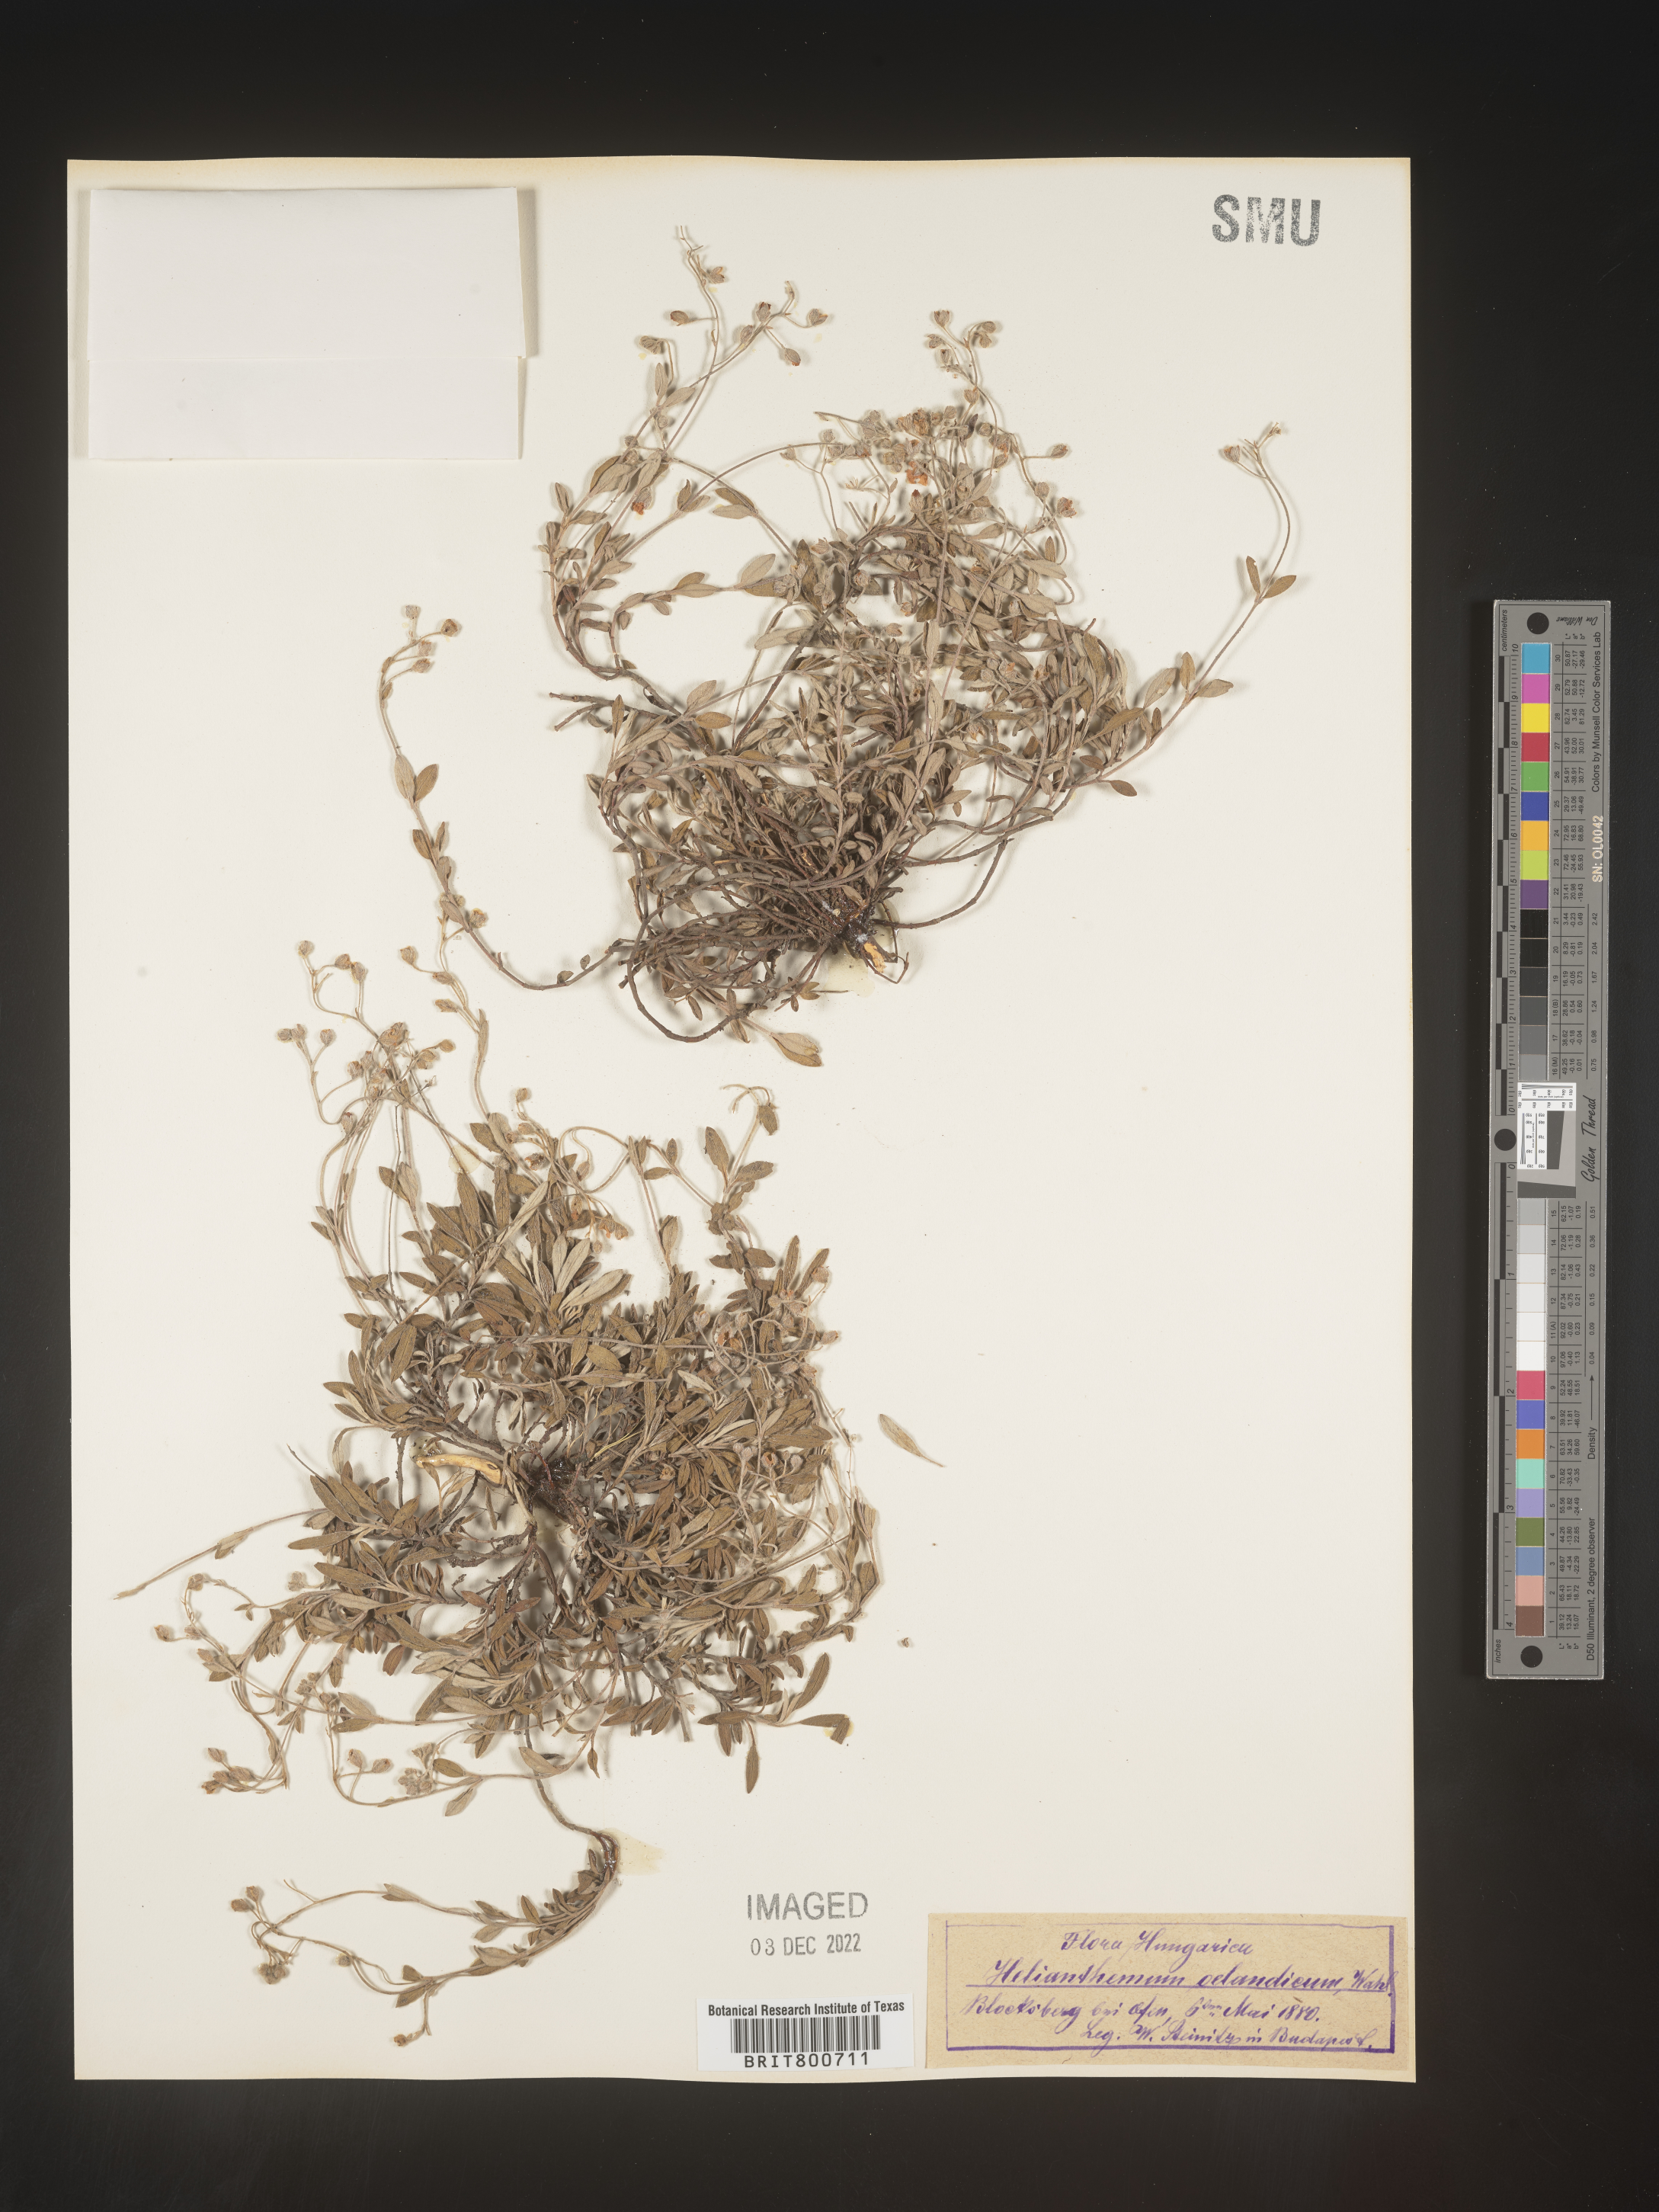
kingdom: Plantae
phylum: Tracheophyta
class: Magnoliopsida
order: Malvales
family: Cistaceae
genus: Helianthemum
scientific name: Helianthemum
